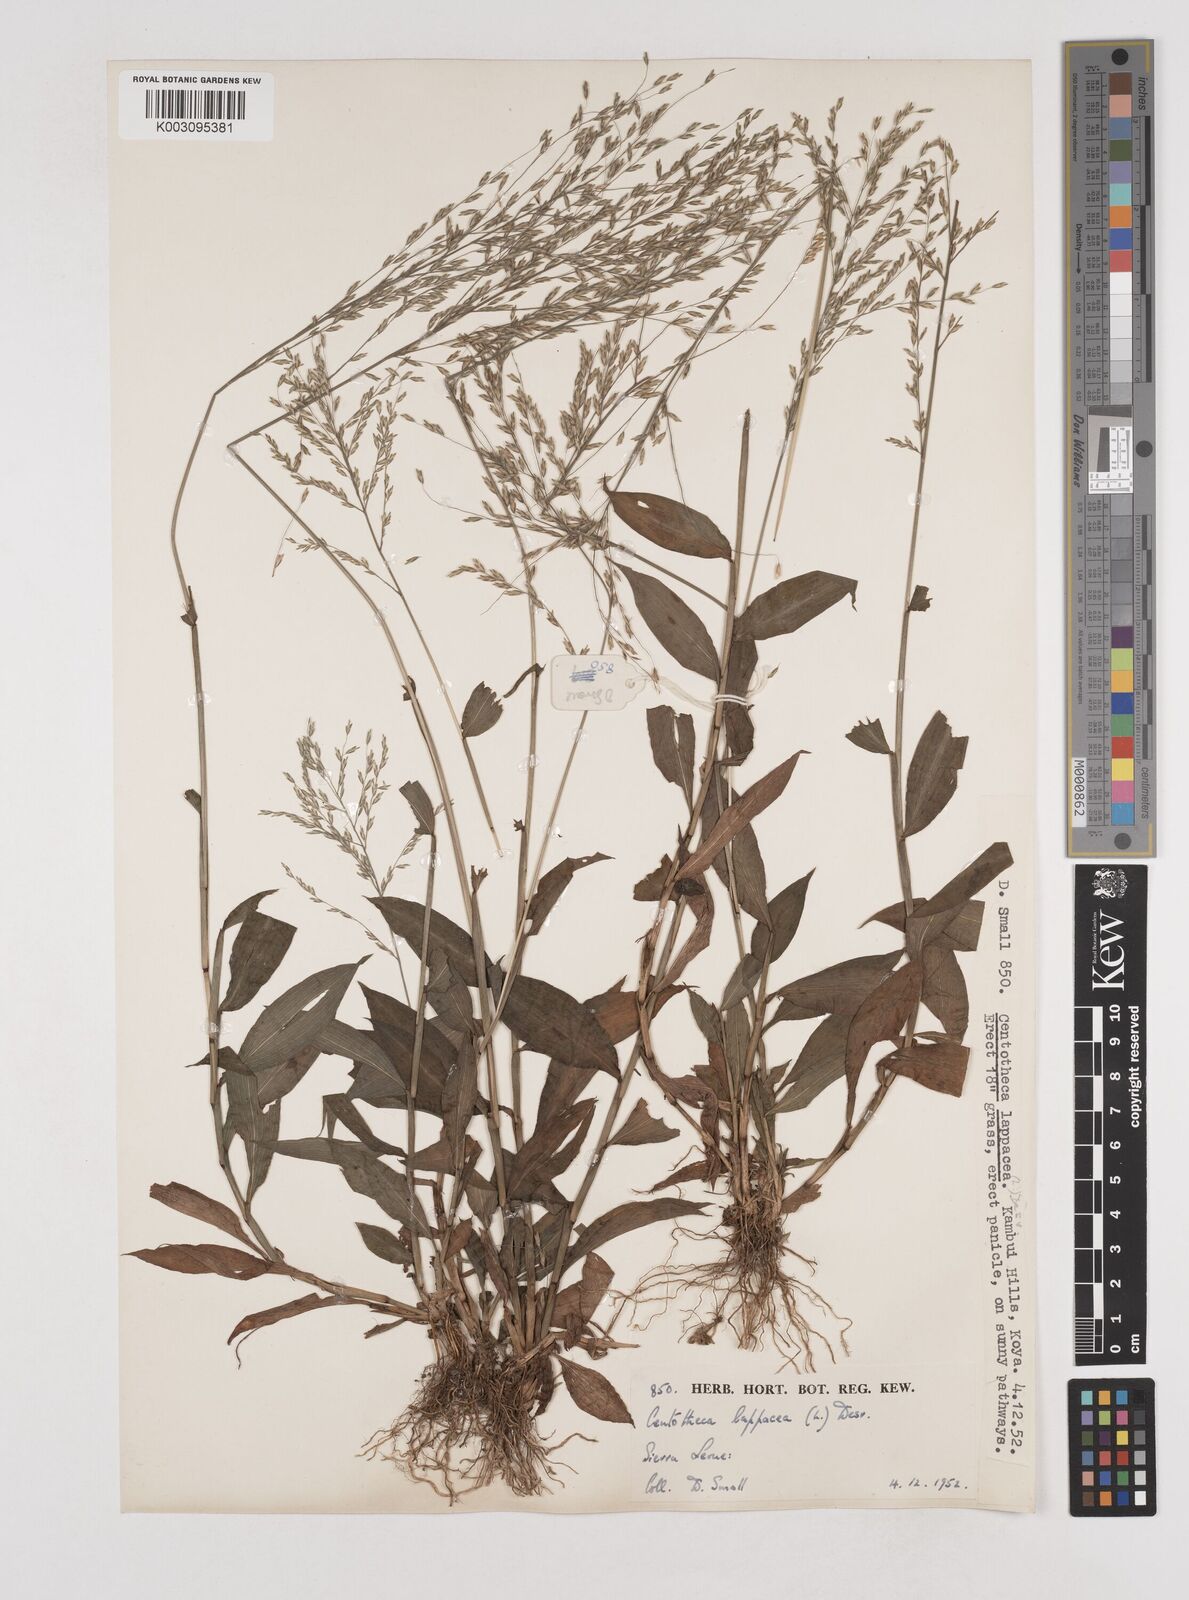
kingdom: Plantae
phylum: Tracheophyta
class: Liliopsida
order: Poales
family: Poaceae
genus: Centotheca
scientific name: Centotheca lappacea
